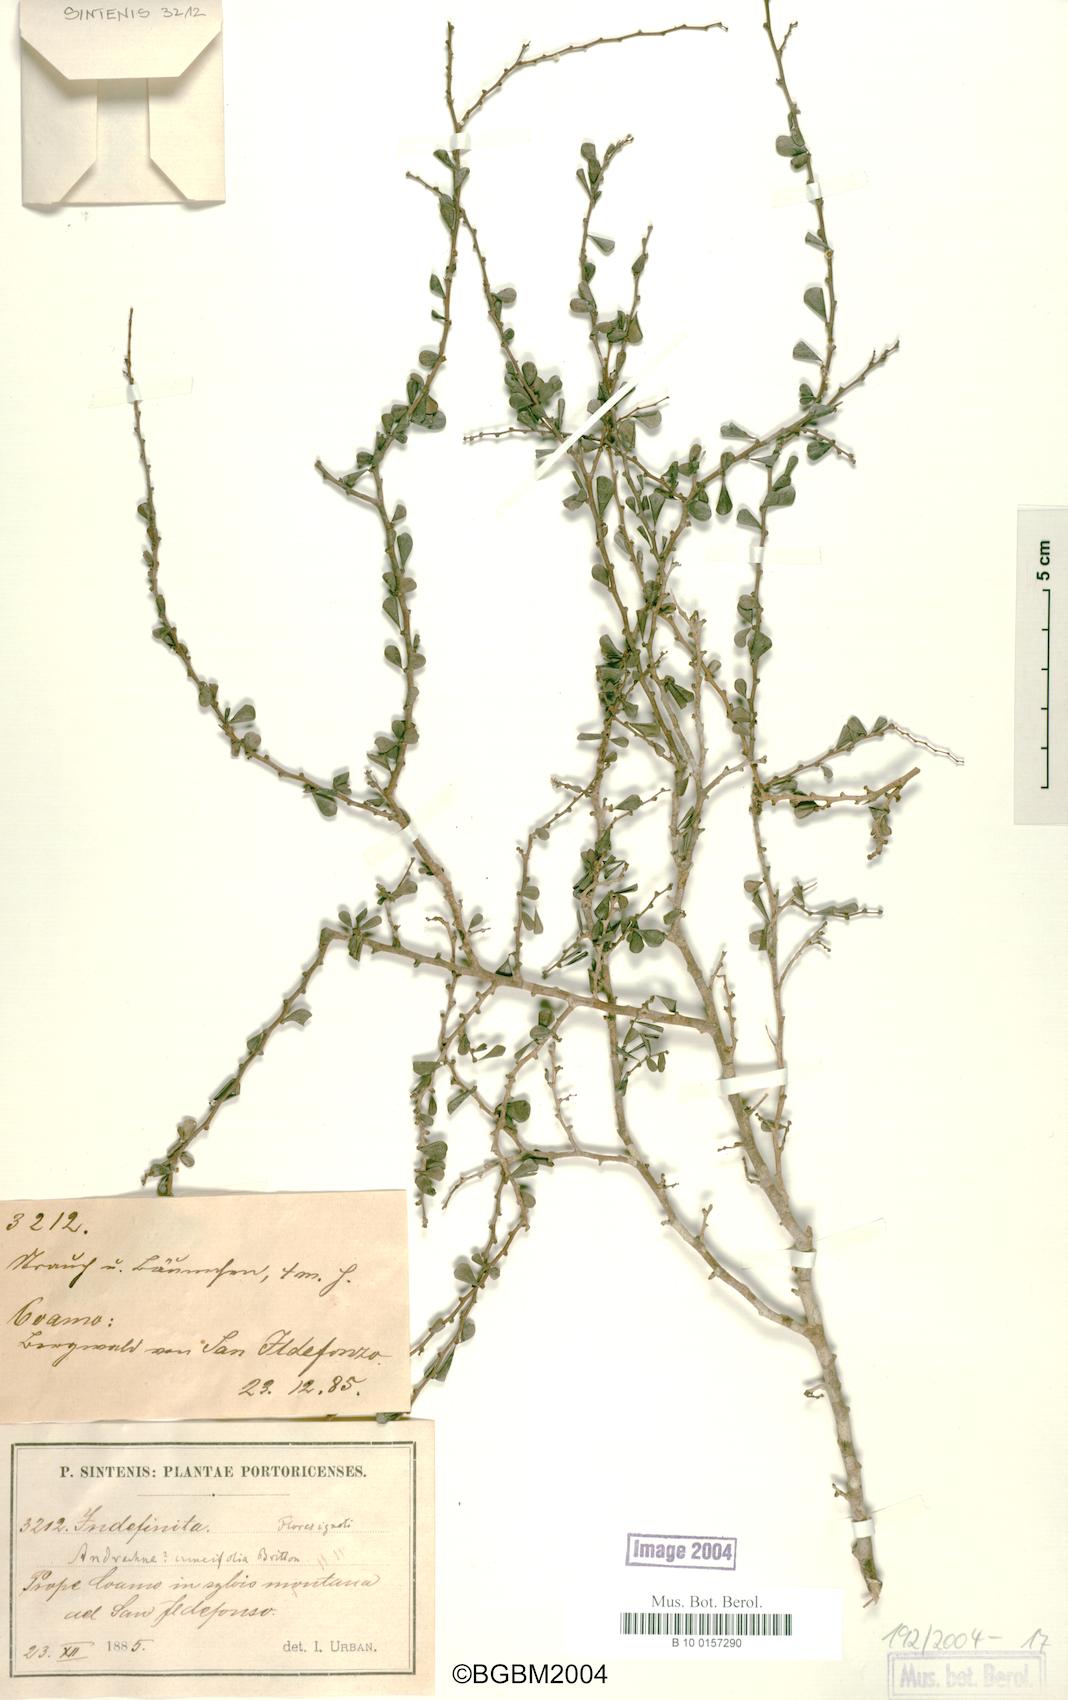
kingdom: Plantae
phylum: Tracheophyta
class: Magnoliopsida
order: Malpighiales
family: Phyllanthaceae
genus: Phyllanthus
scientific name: Phyllanthus cuneifolius
